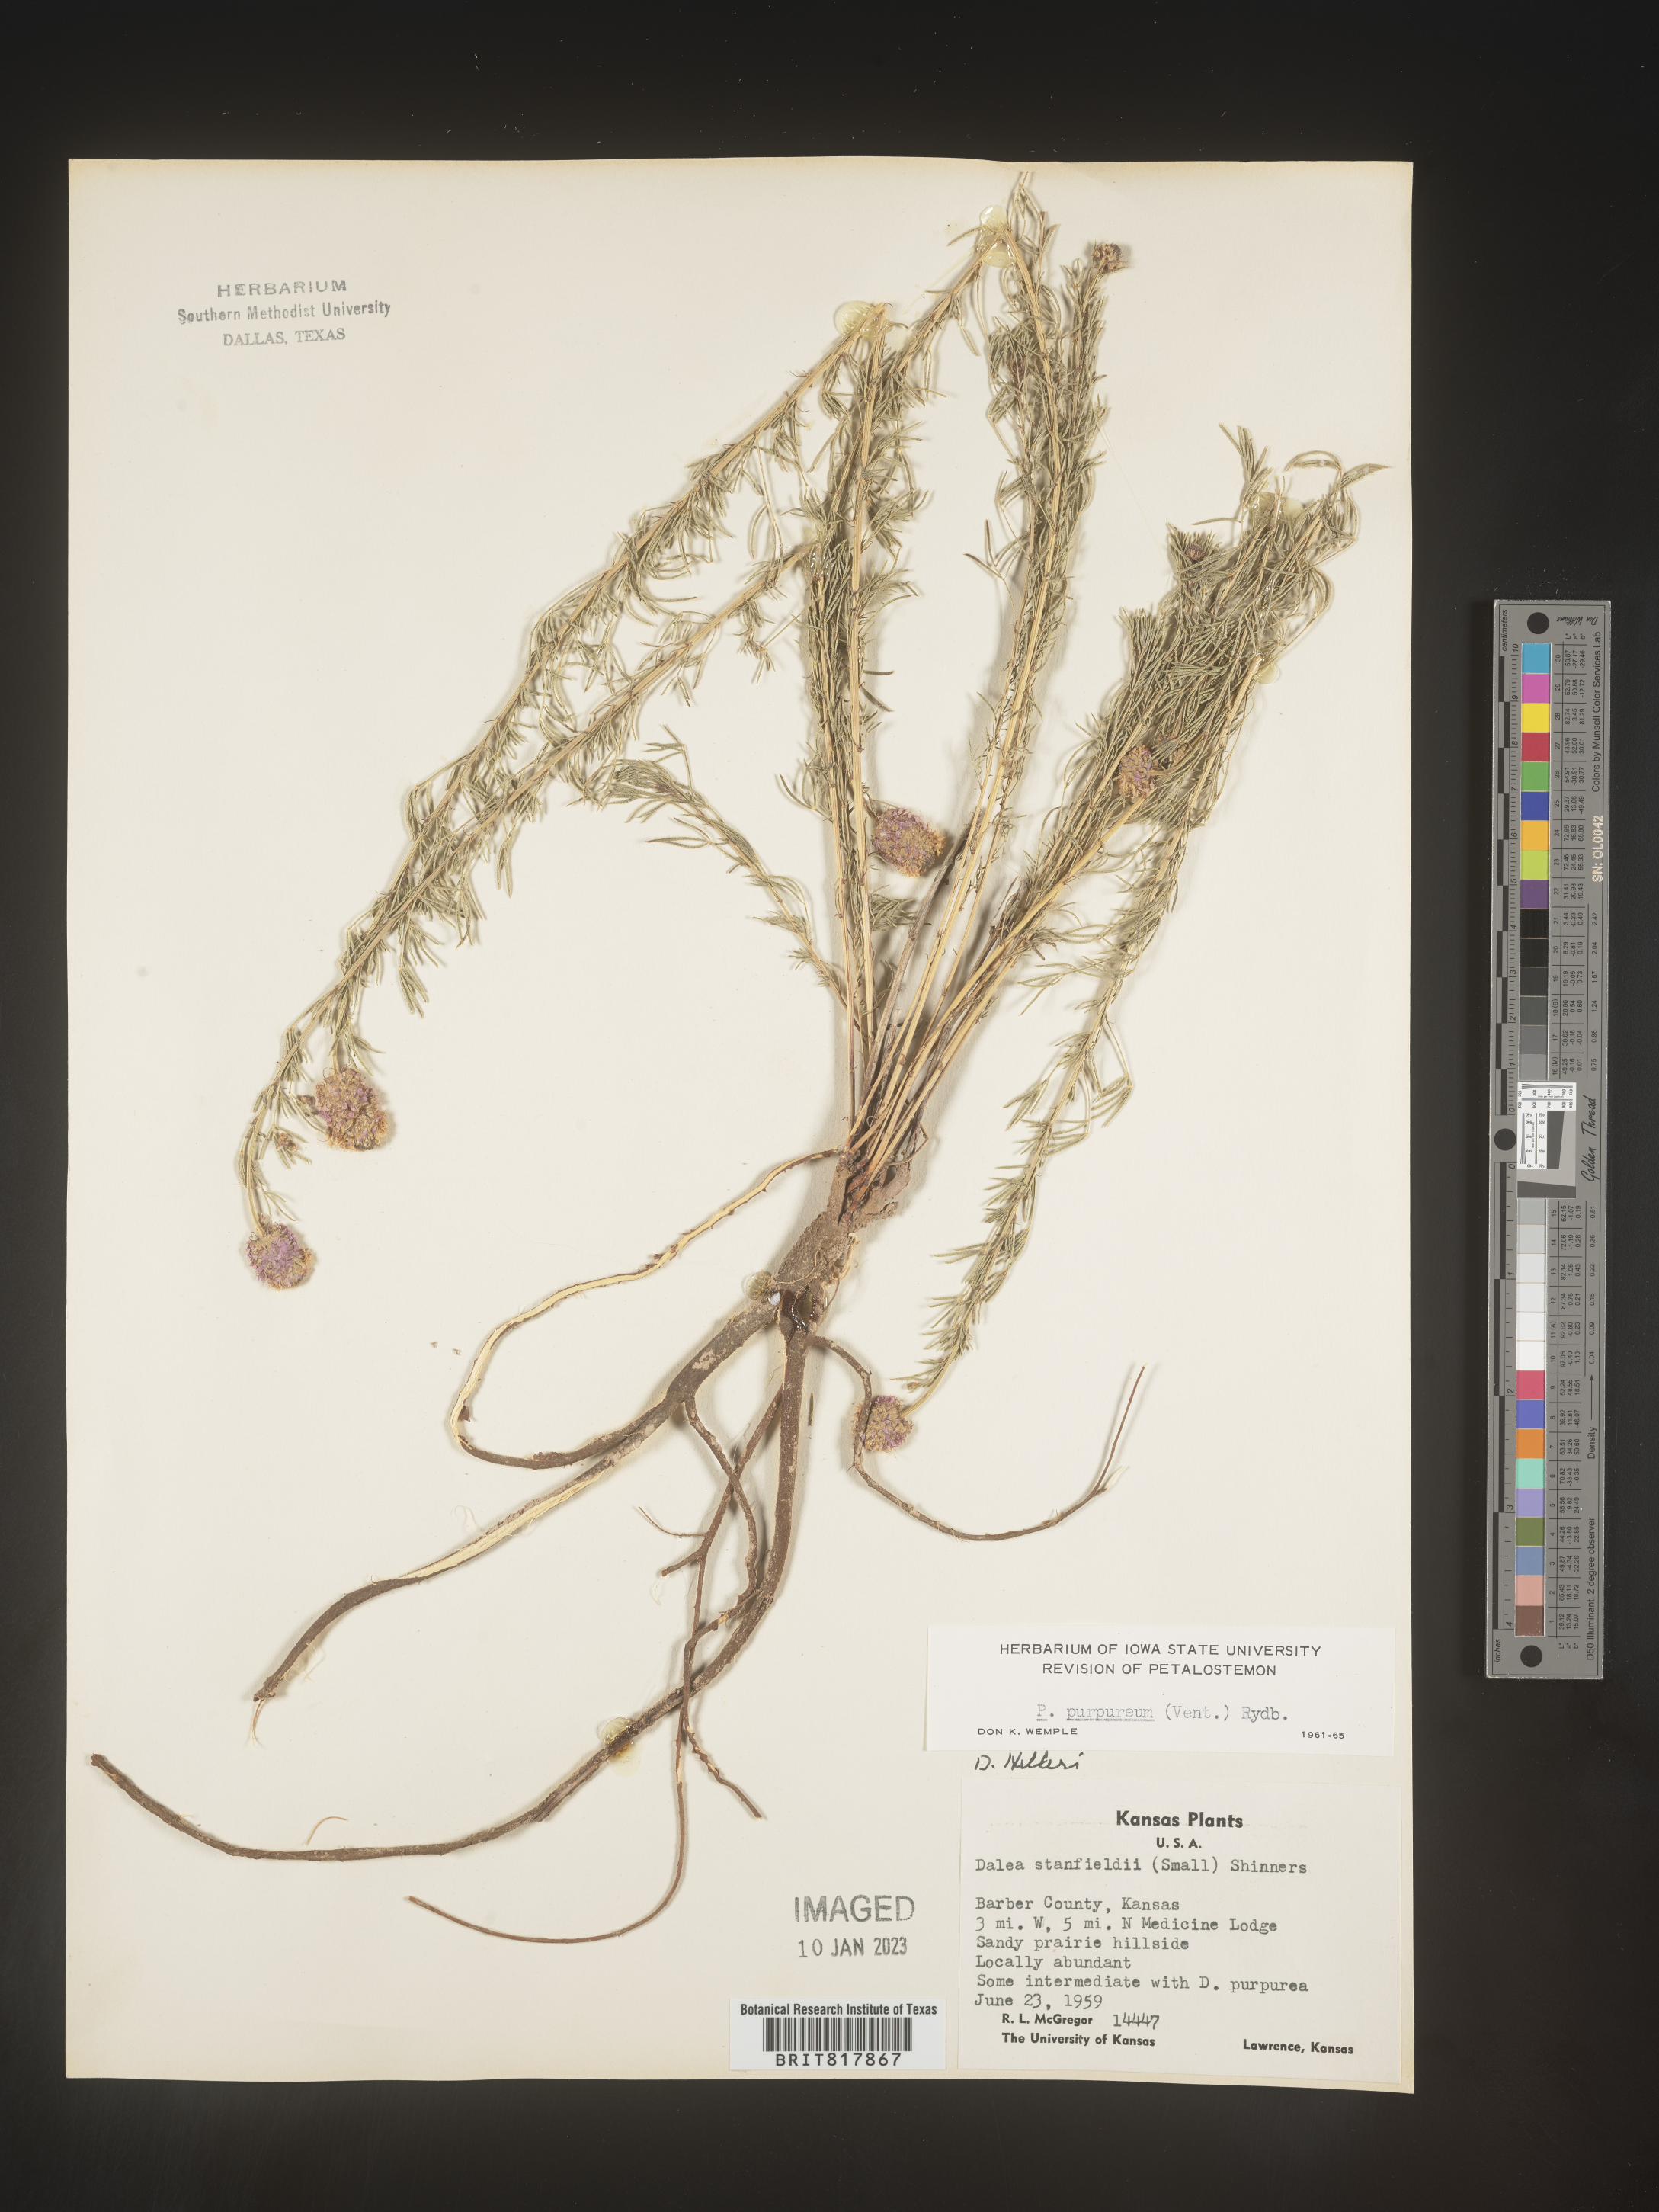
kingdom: Plantae
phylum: Tracheophyta
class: Magnoliopsida
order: Fabales
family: Fabaceae
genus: Dalea
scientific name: Dalea purpurea
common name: Purple prairie-clover
